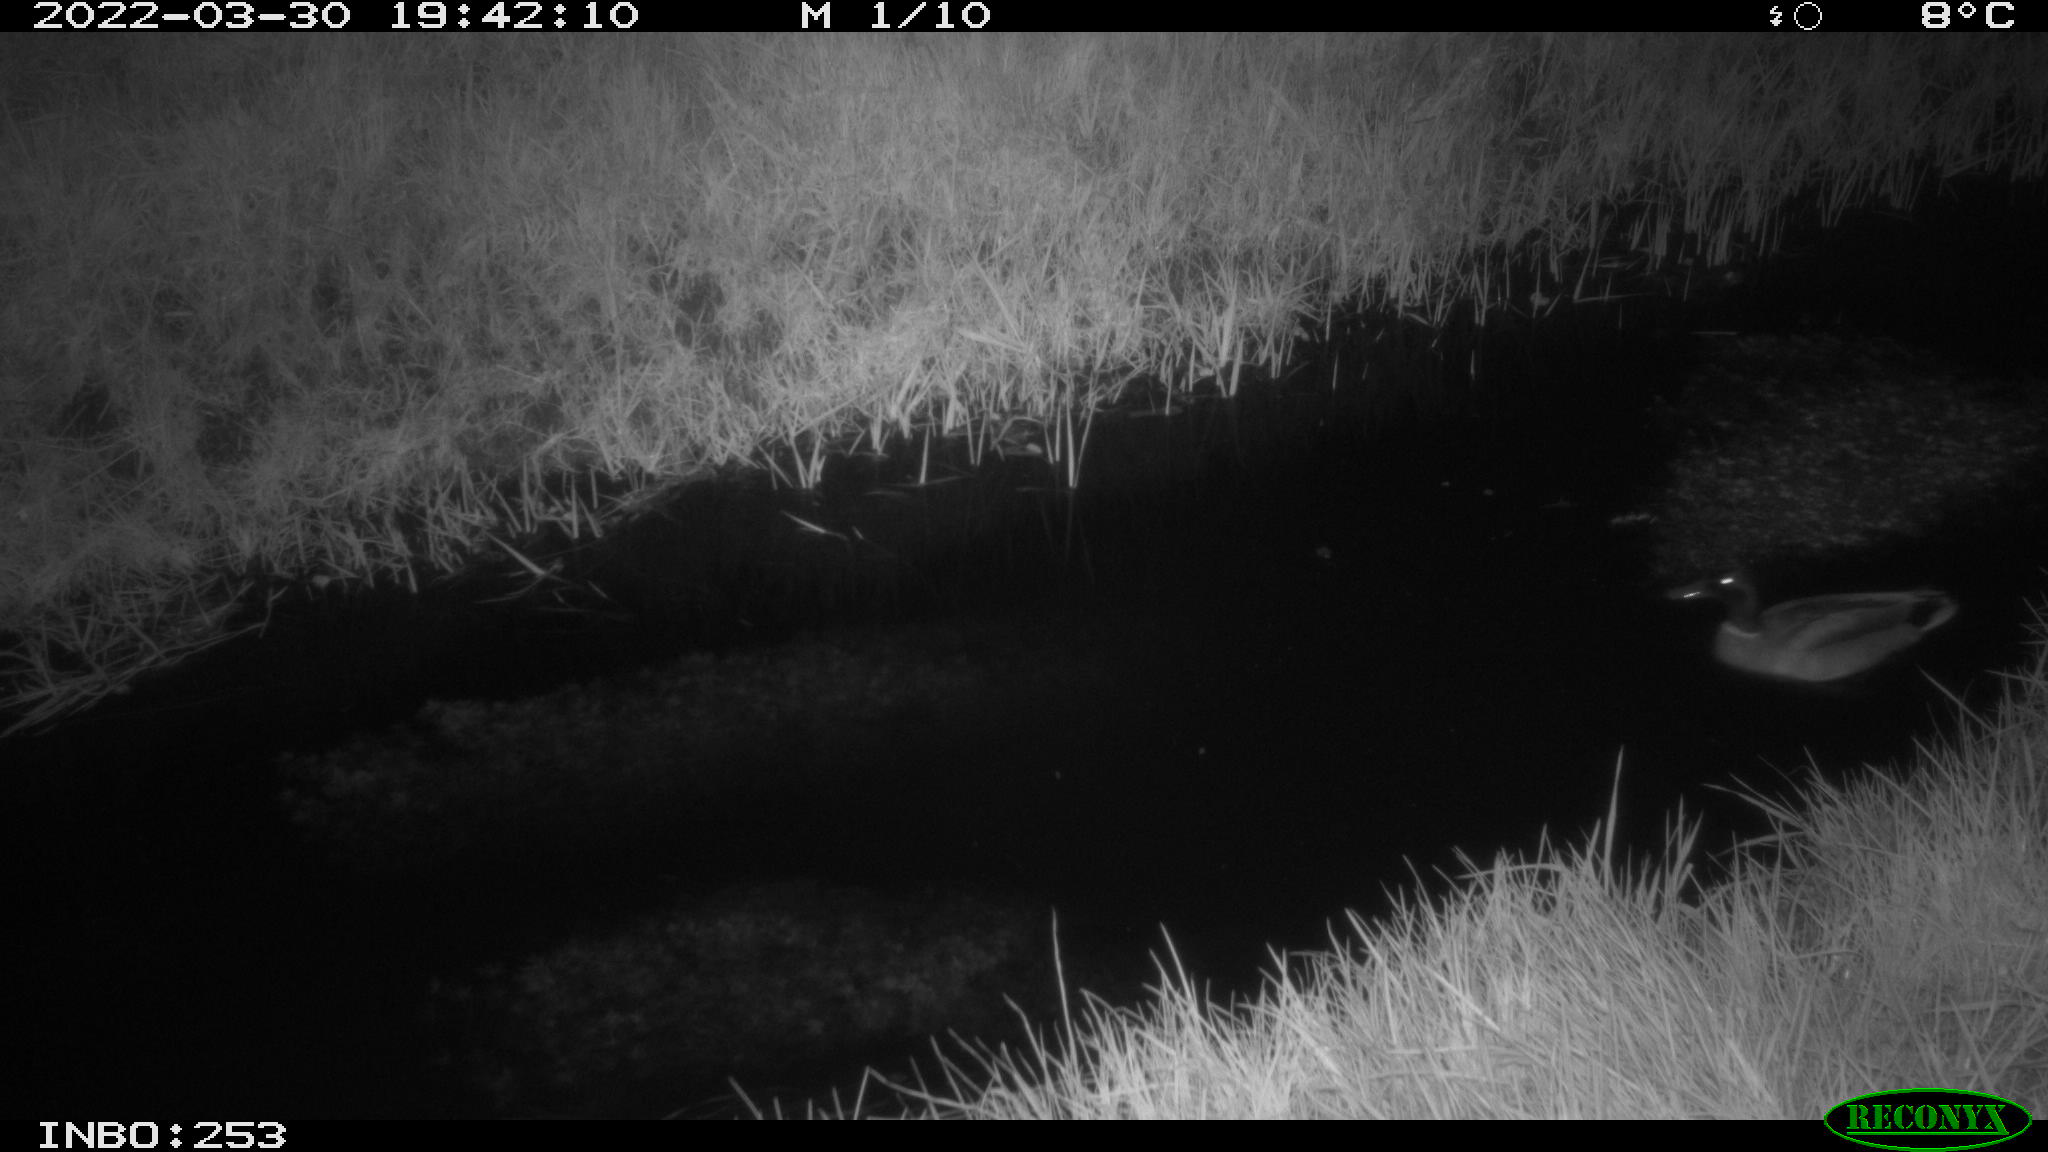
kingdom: Animalia
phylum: Chordata
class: Aves
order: Anseriformes
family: Anatidae
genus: Anas
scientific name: Anas platyrhynchos
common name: Mallard
